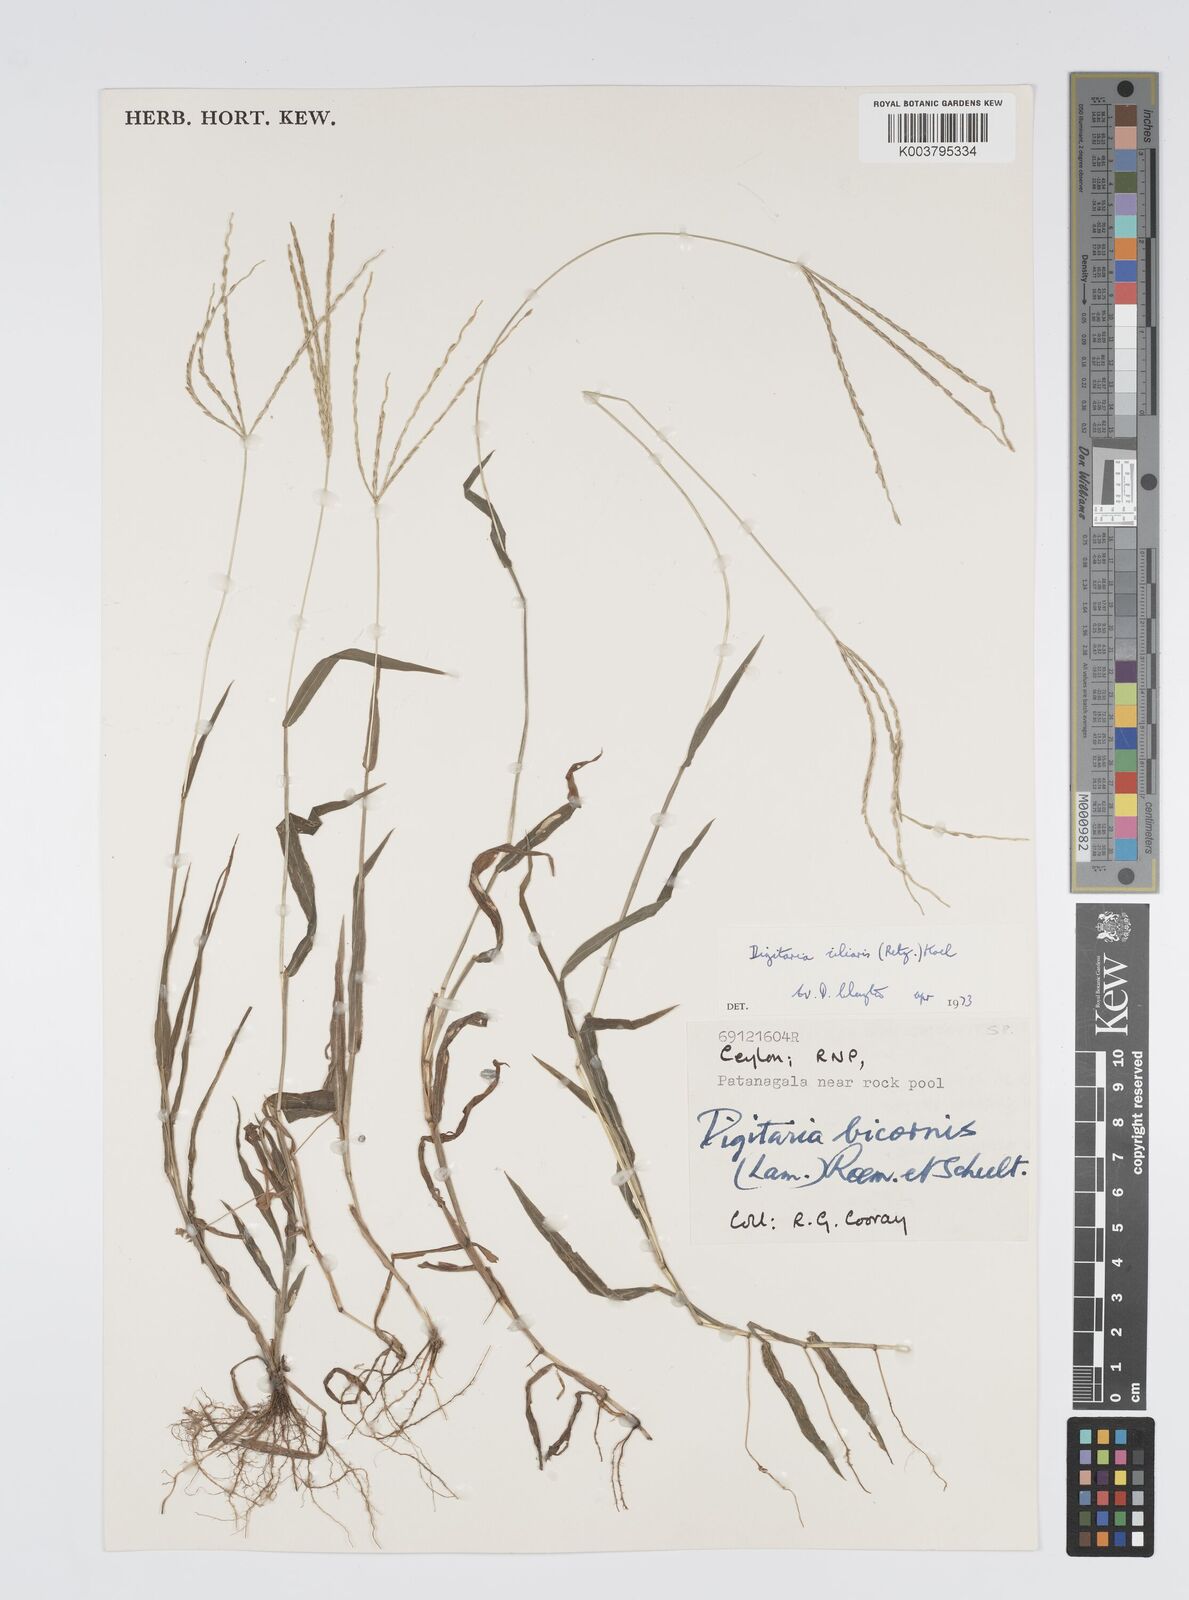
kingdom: Plantae
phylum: Tracheophyta
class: Liliopsida
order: Poales
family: Poaceae
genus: Digitaria
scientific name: Digitaria ciliaris
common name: Tropical finger-grass
